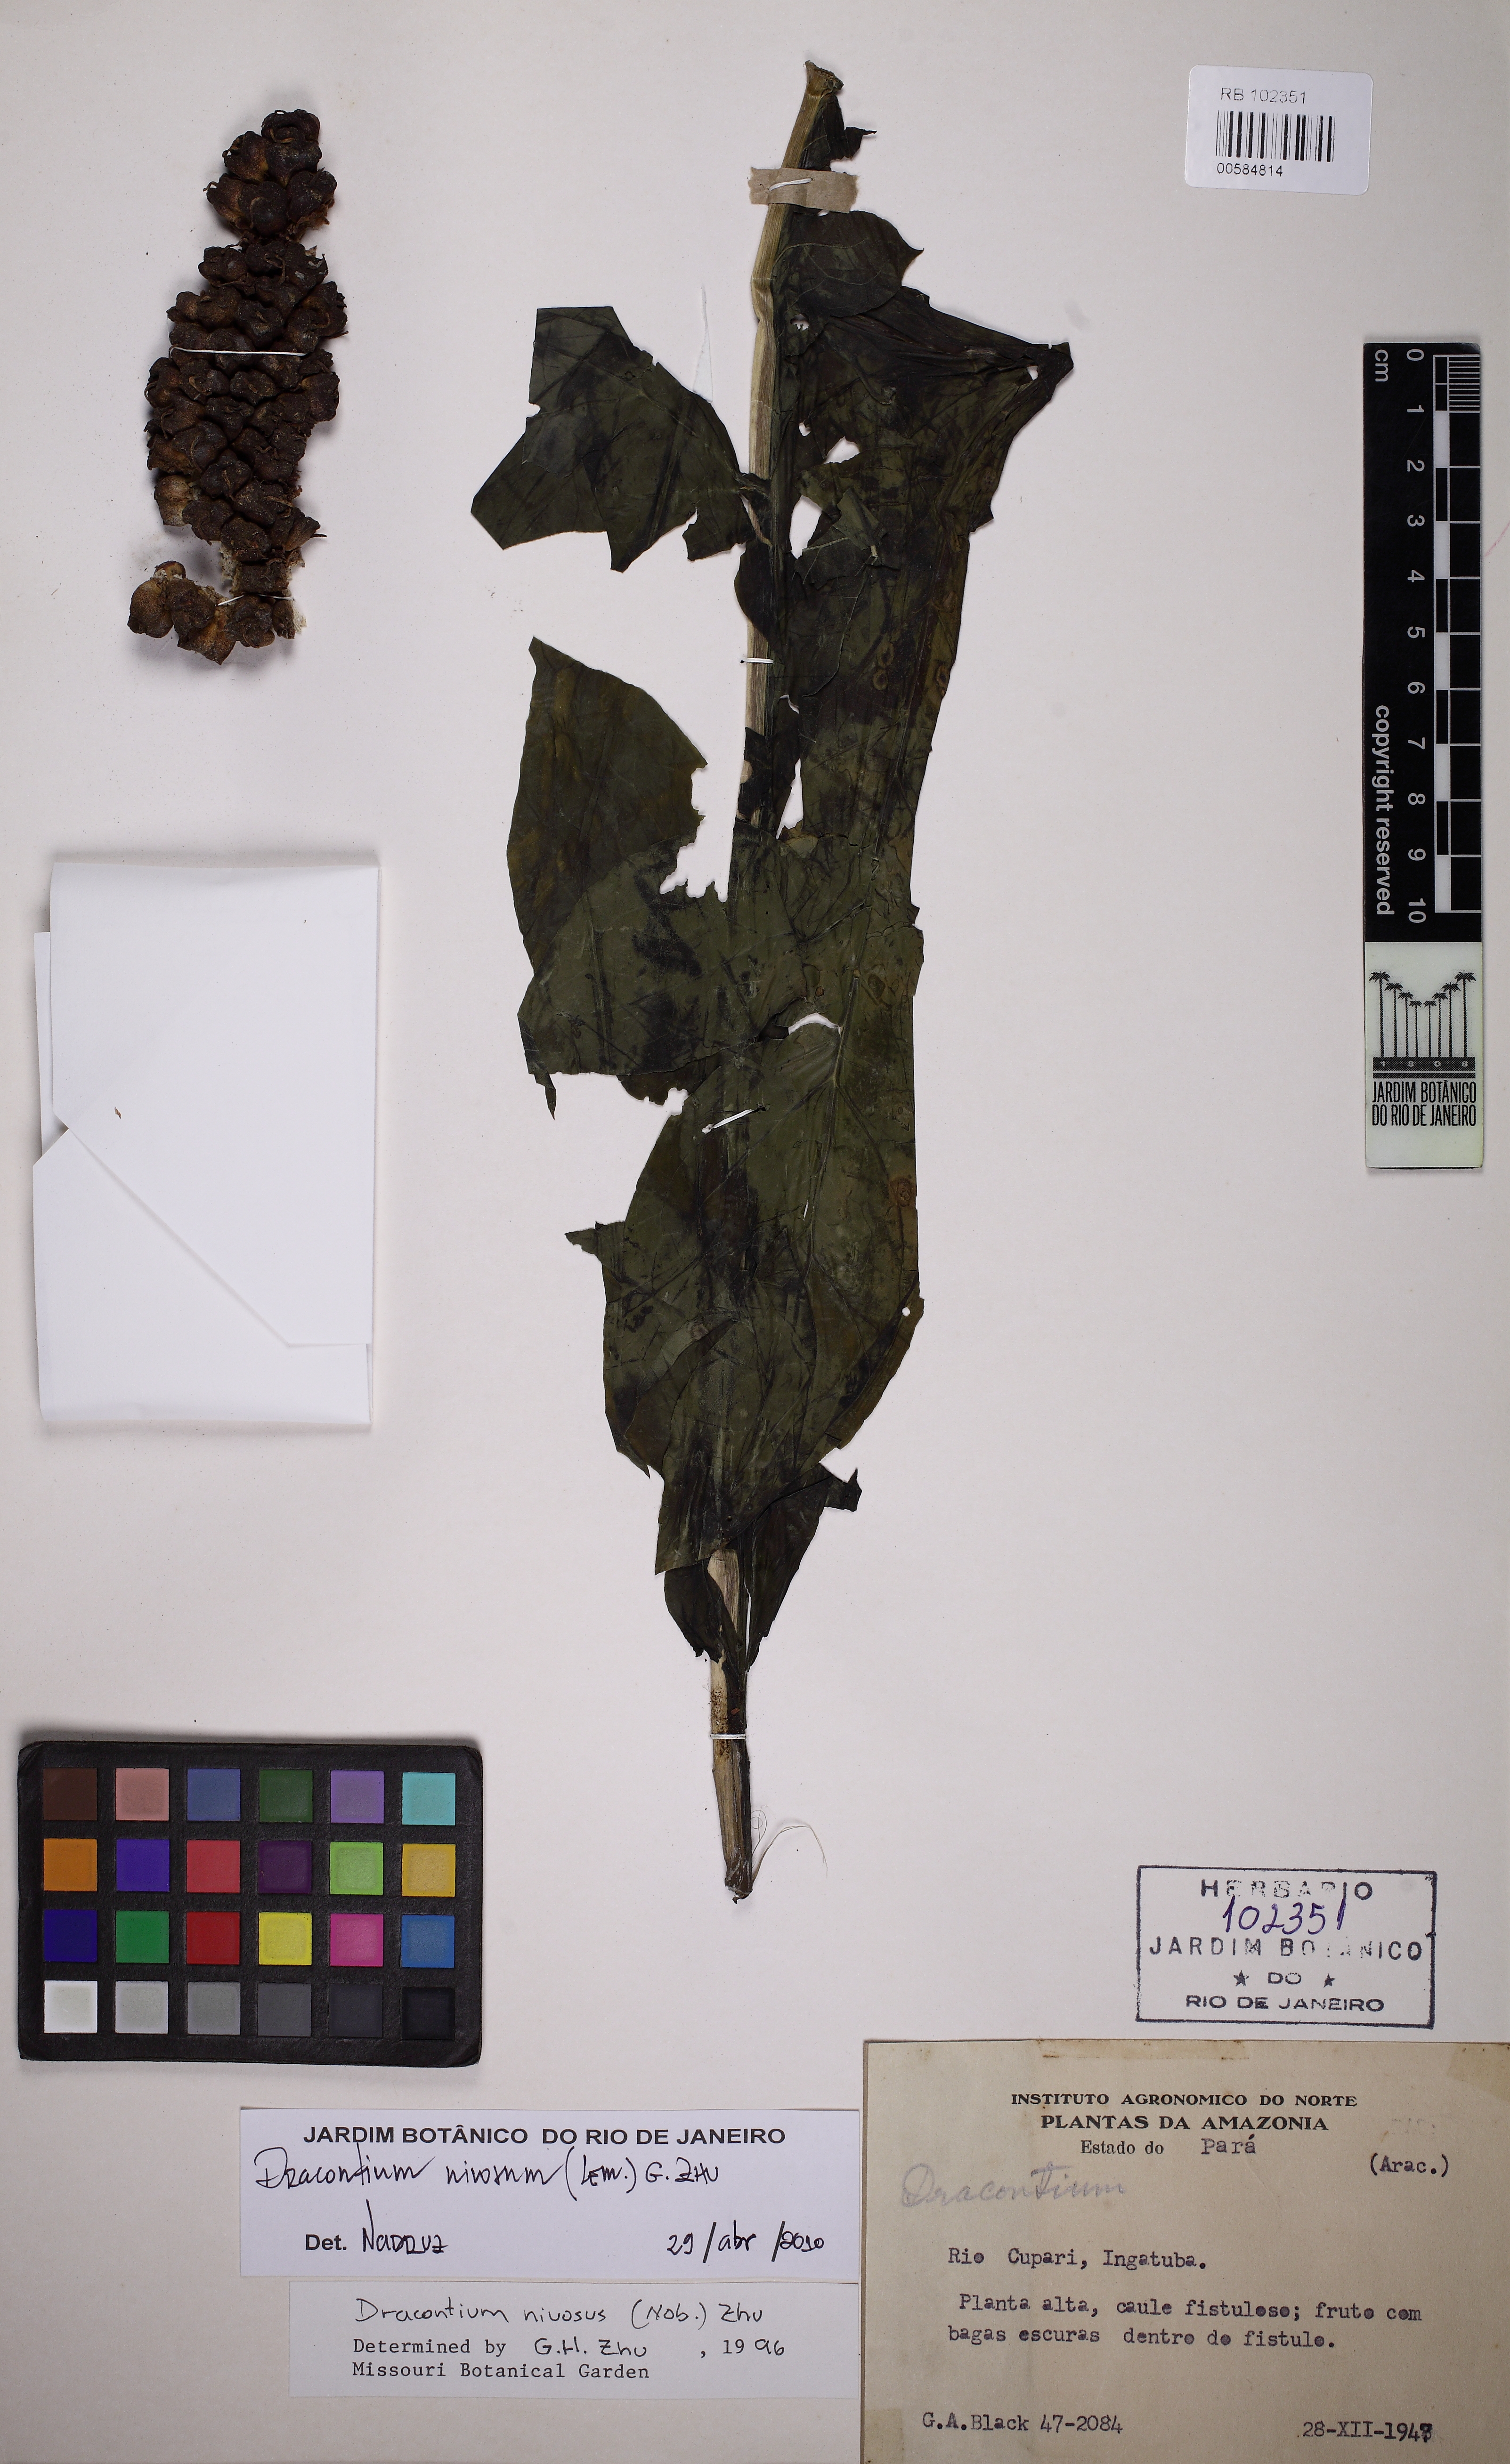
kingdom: Plantae
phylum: Tracheophyta
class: Liliopsida
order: Alismatales
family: Araceae
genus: Dracontium
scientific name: Dracontium nivosum
